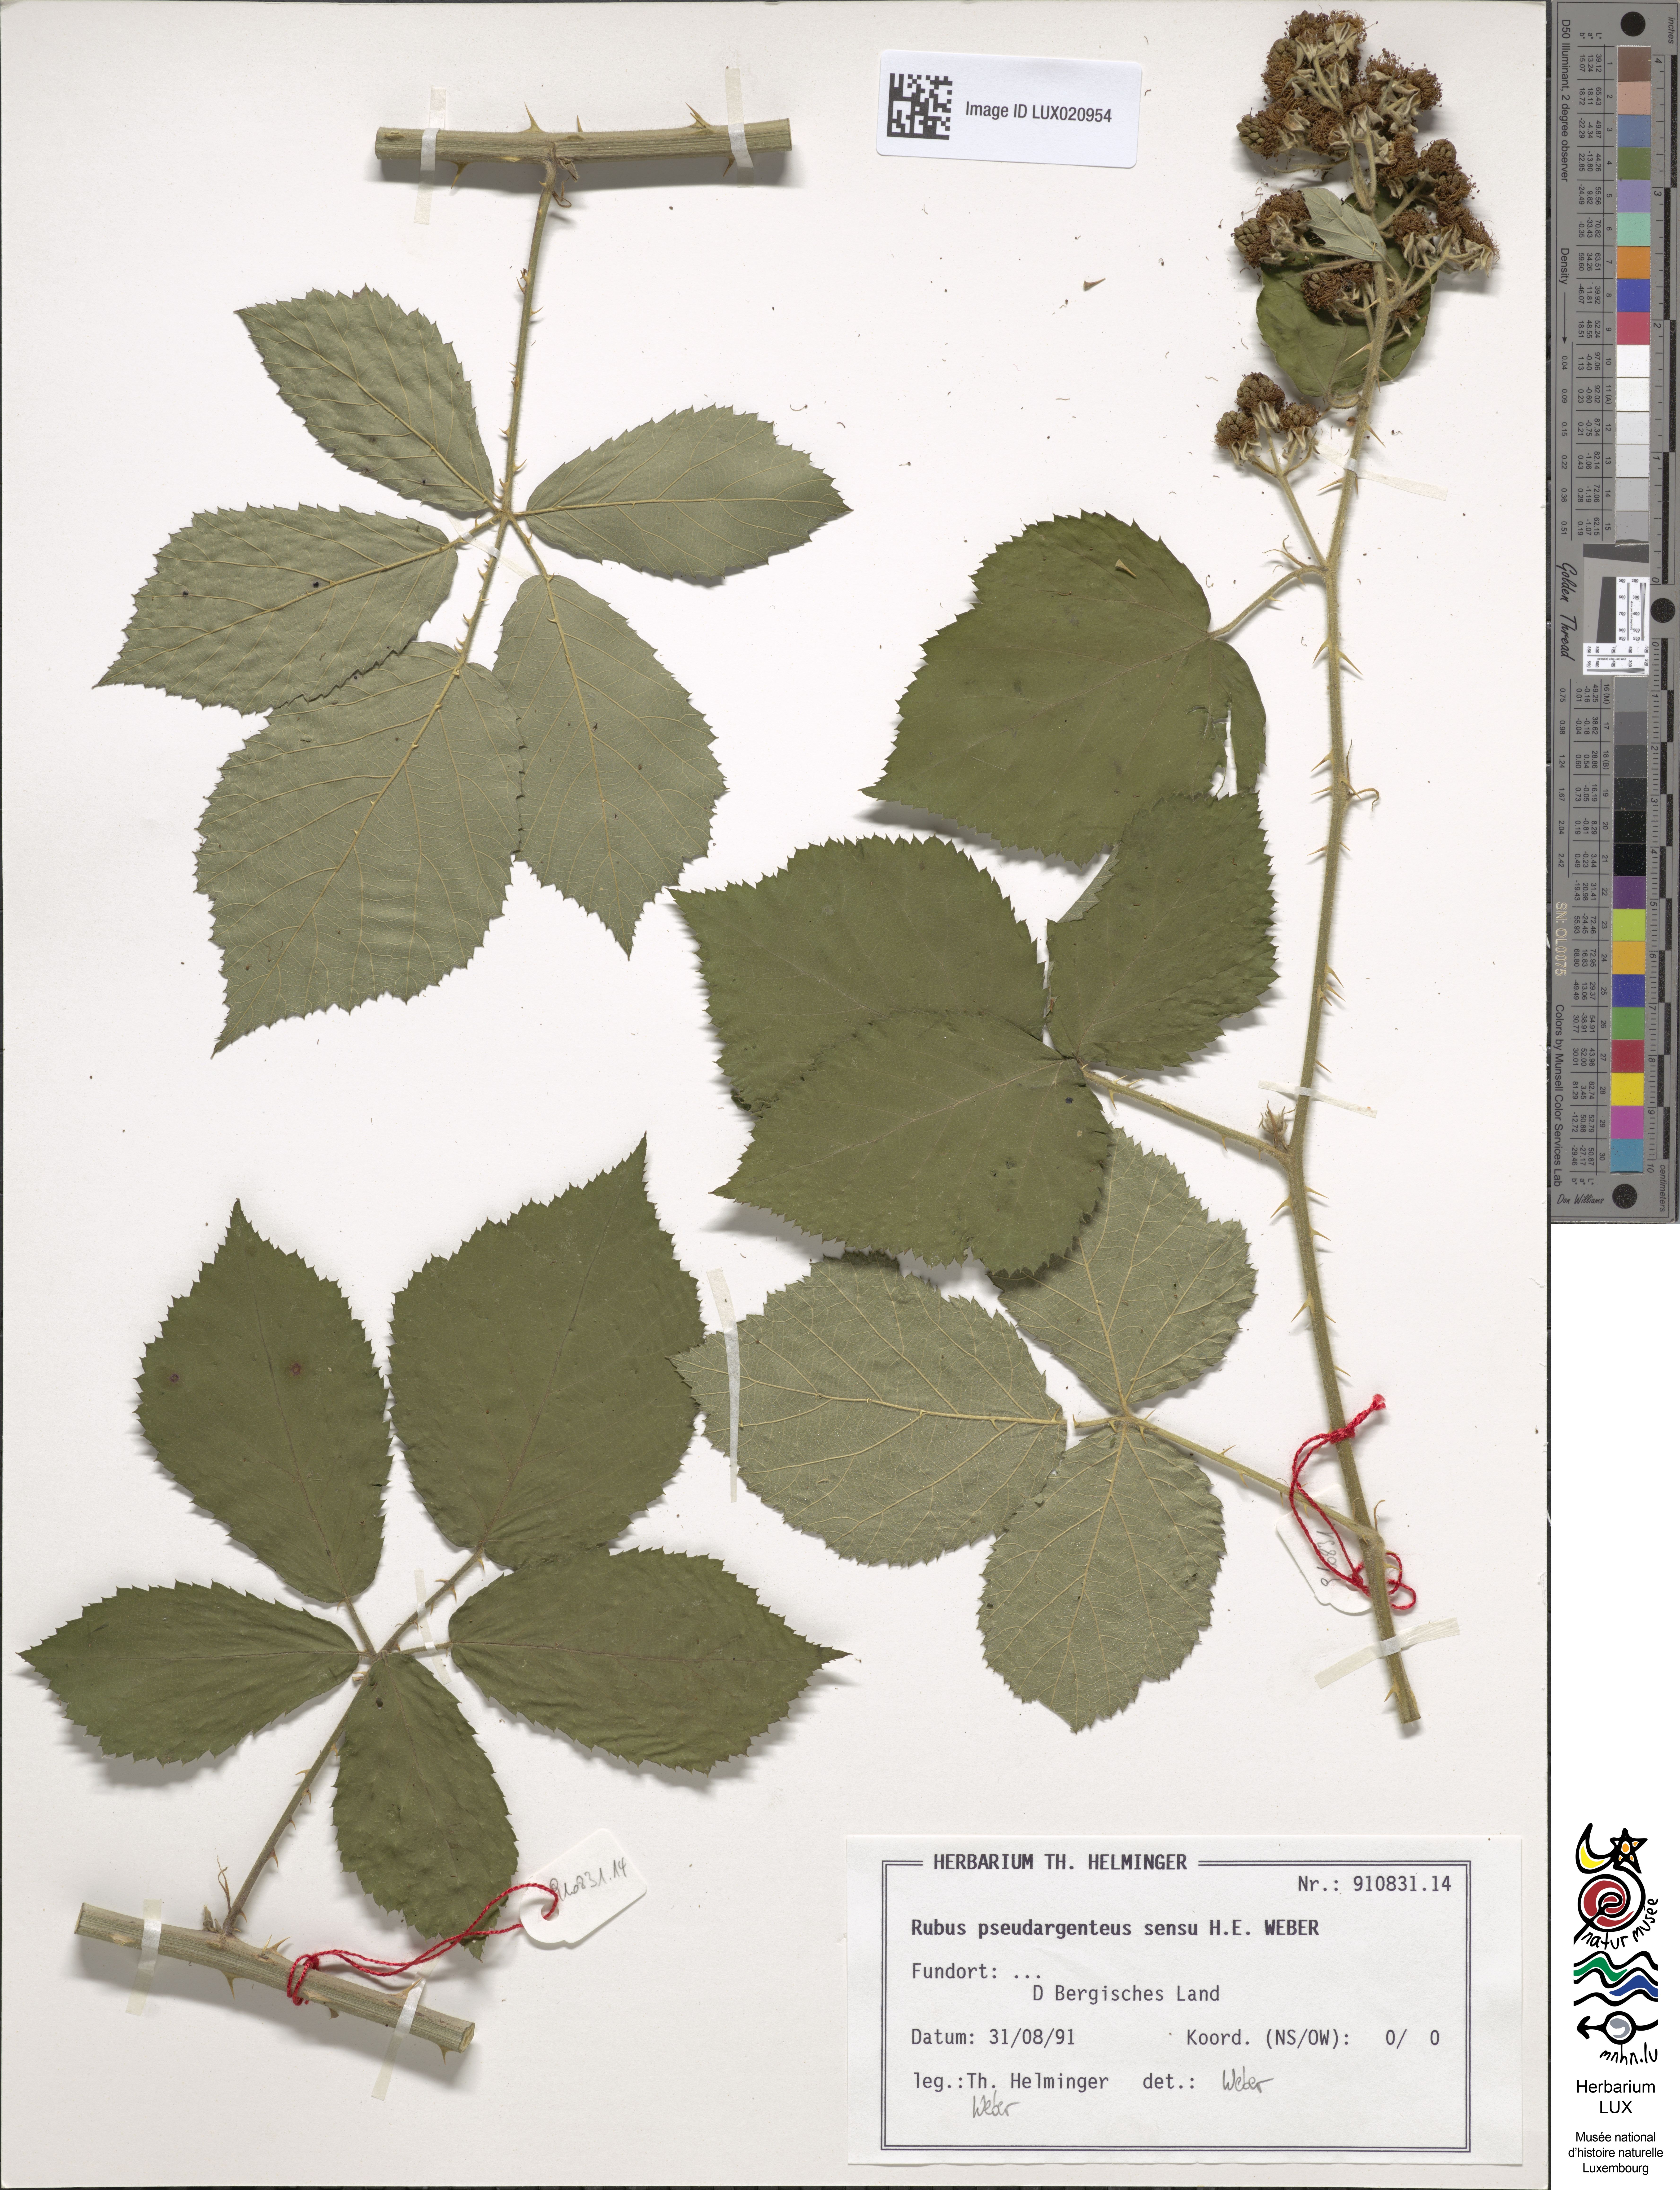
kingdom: Plantae
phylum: Tracheophyta
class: Magnoliopsida
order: Rosales
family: Rosaceae
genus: Rubus
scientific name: Rubus pseudargenteus
